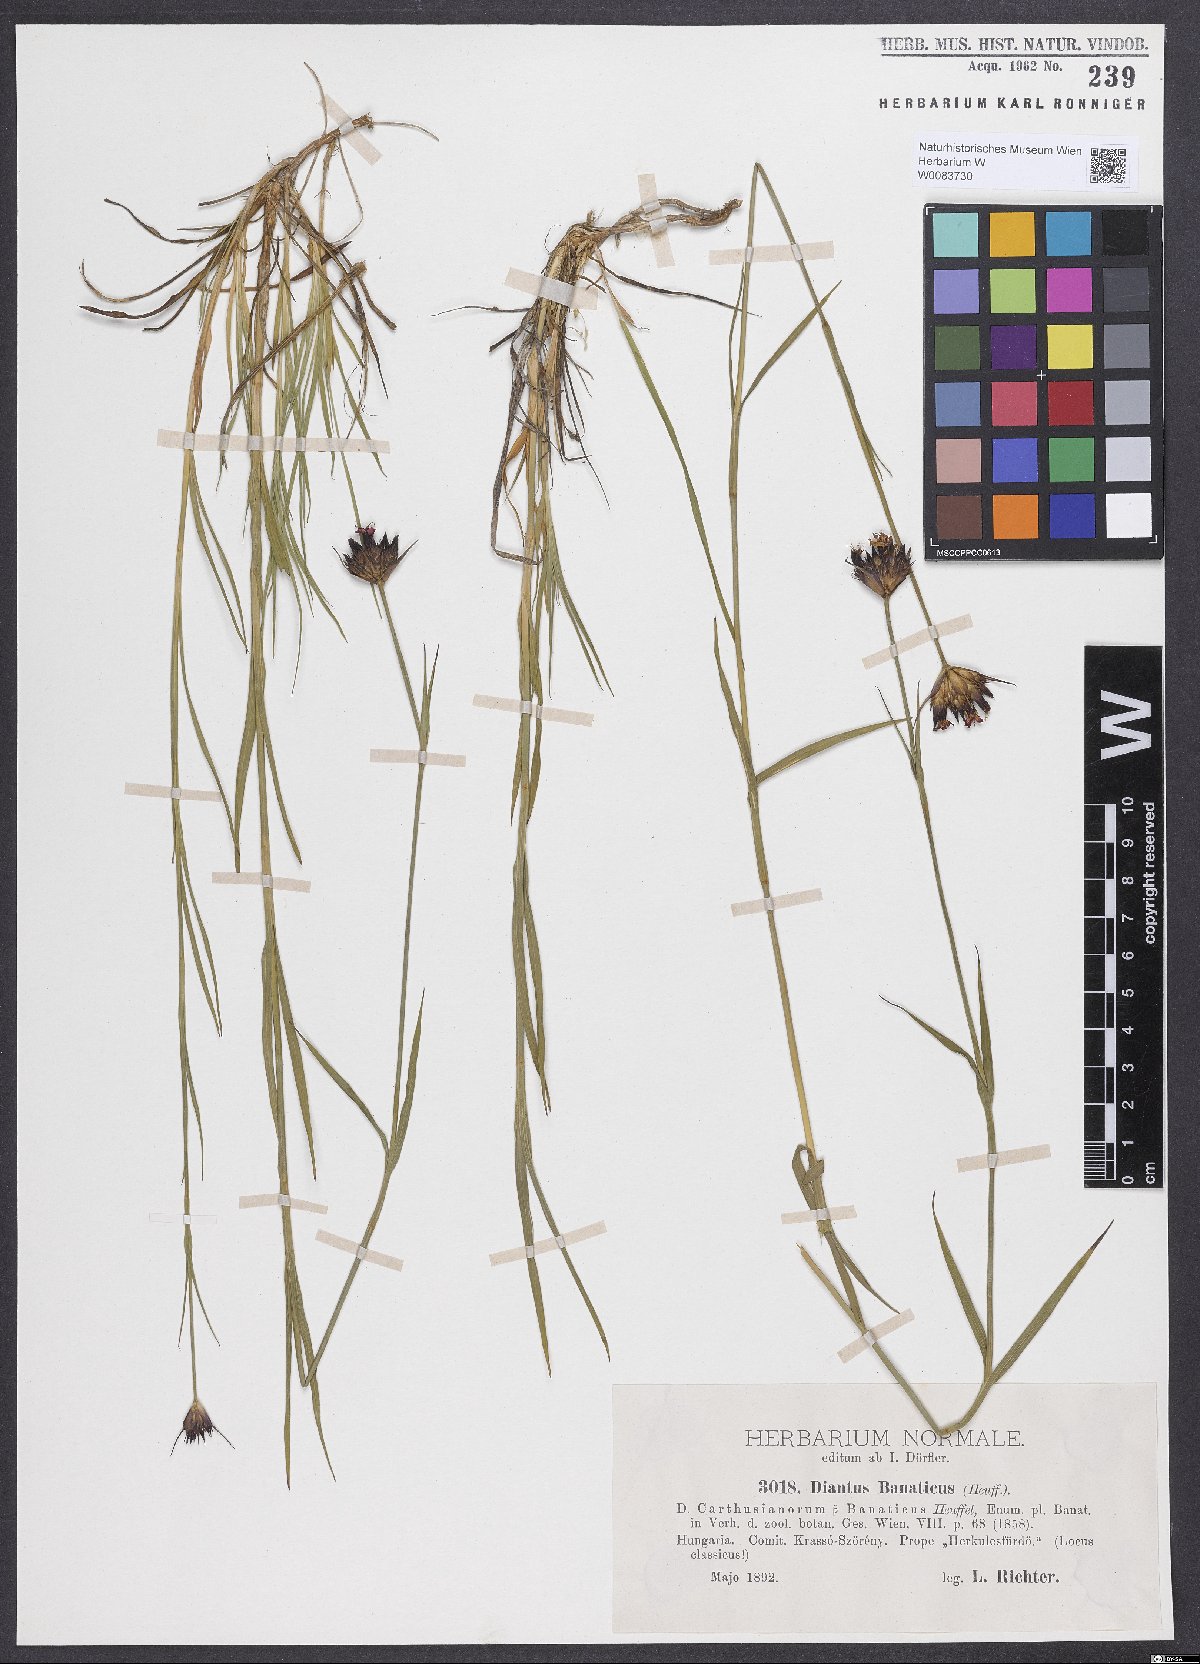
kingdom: Plantae
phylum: Tracheophyta
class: Magnoliopsida
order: Caryophyllales
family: Caryophyllaceae
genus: Dianthus
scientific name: Dianthus giganteus
